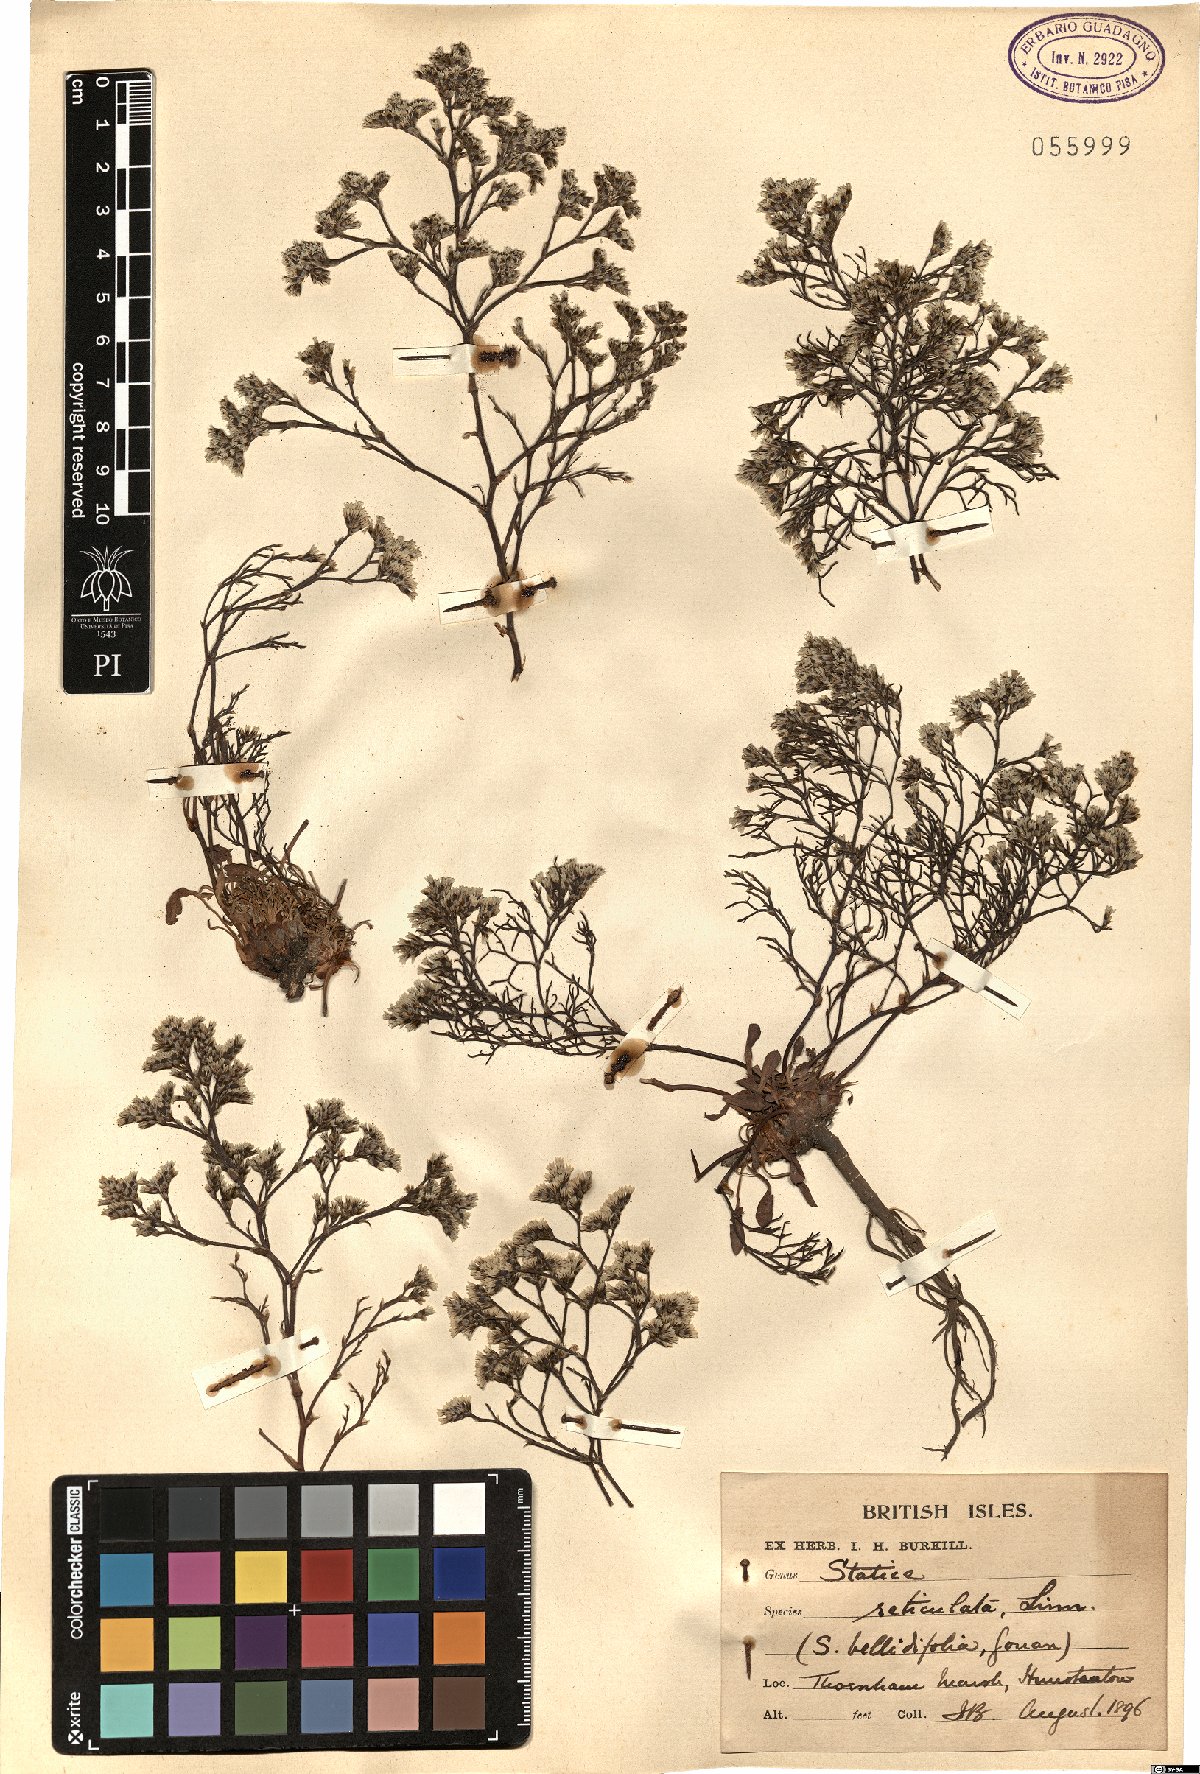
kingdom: Plantae
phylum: Tracheophyta
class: Magnoliopsida
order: Caryophyllales
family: Plumbaginaceae
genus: Limonium
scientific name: Limonium
